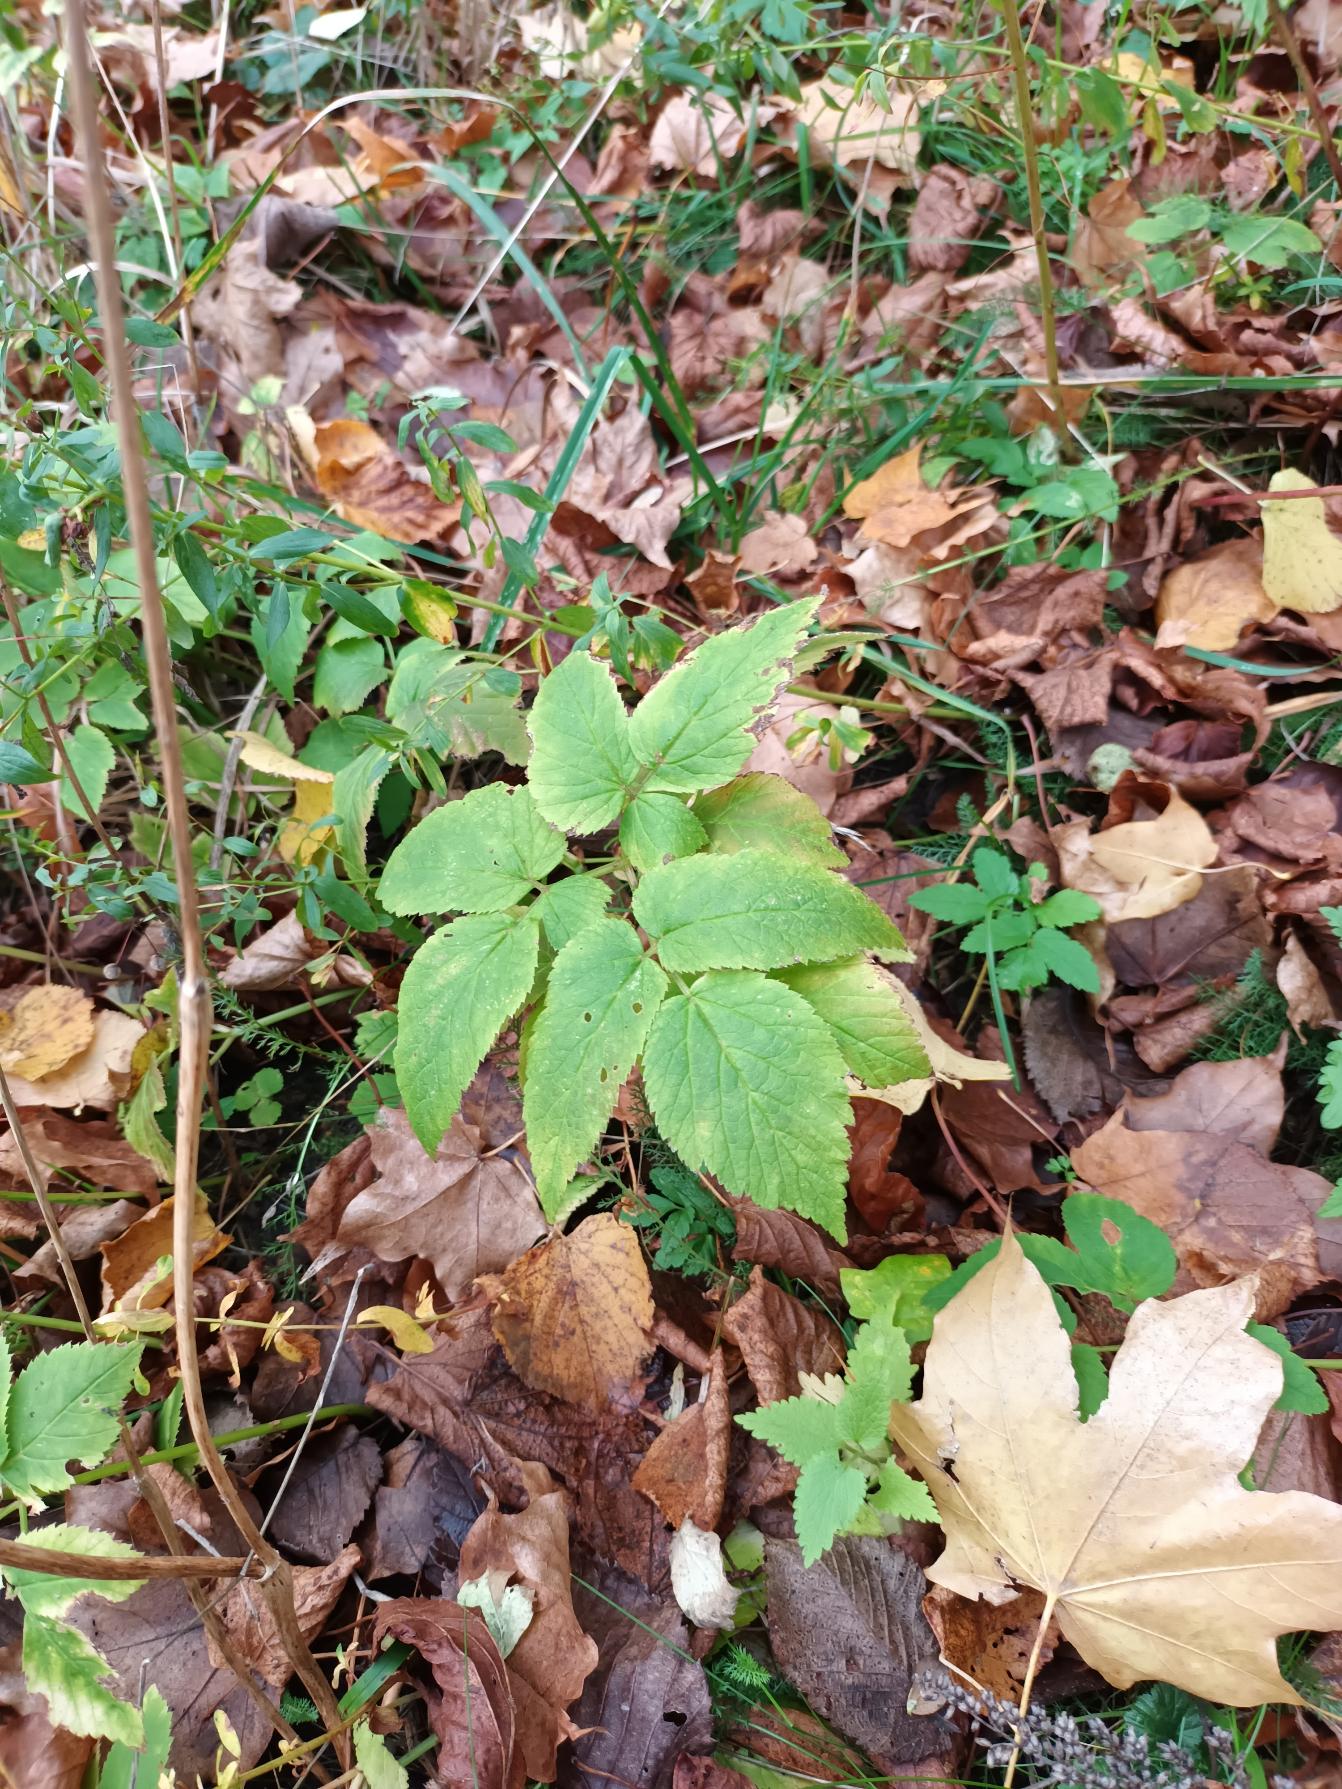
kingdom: Plantae
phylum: Tracheophyta
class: Magnoliopsida
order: Apiales
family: Apiaceae
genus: Aegopodium
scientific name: Aegopodium podagraria
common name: Skvalderkål
